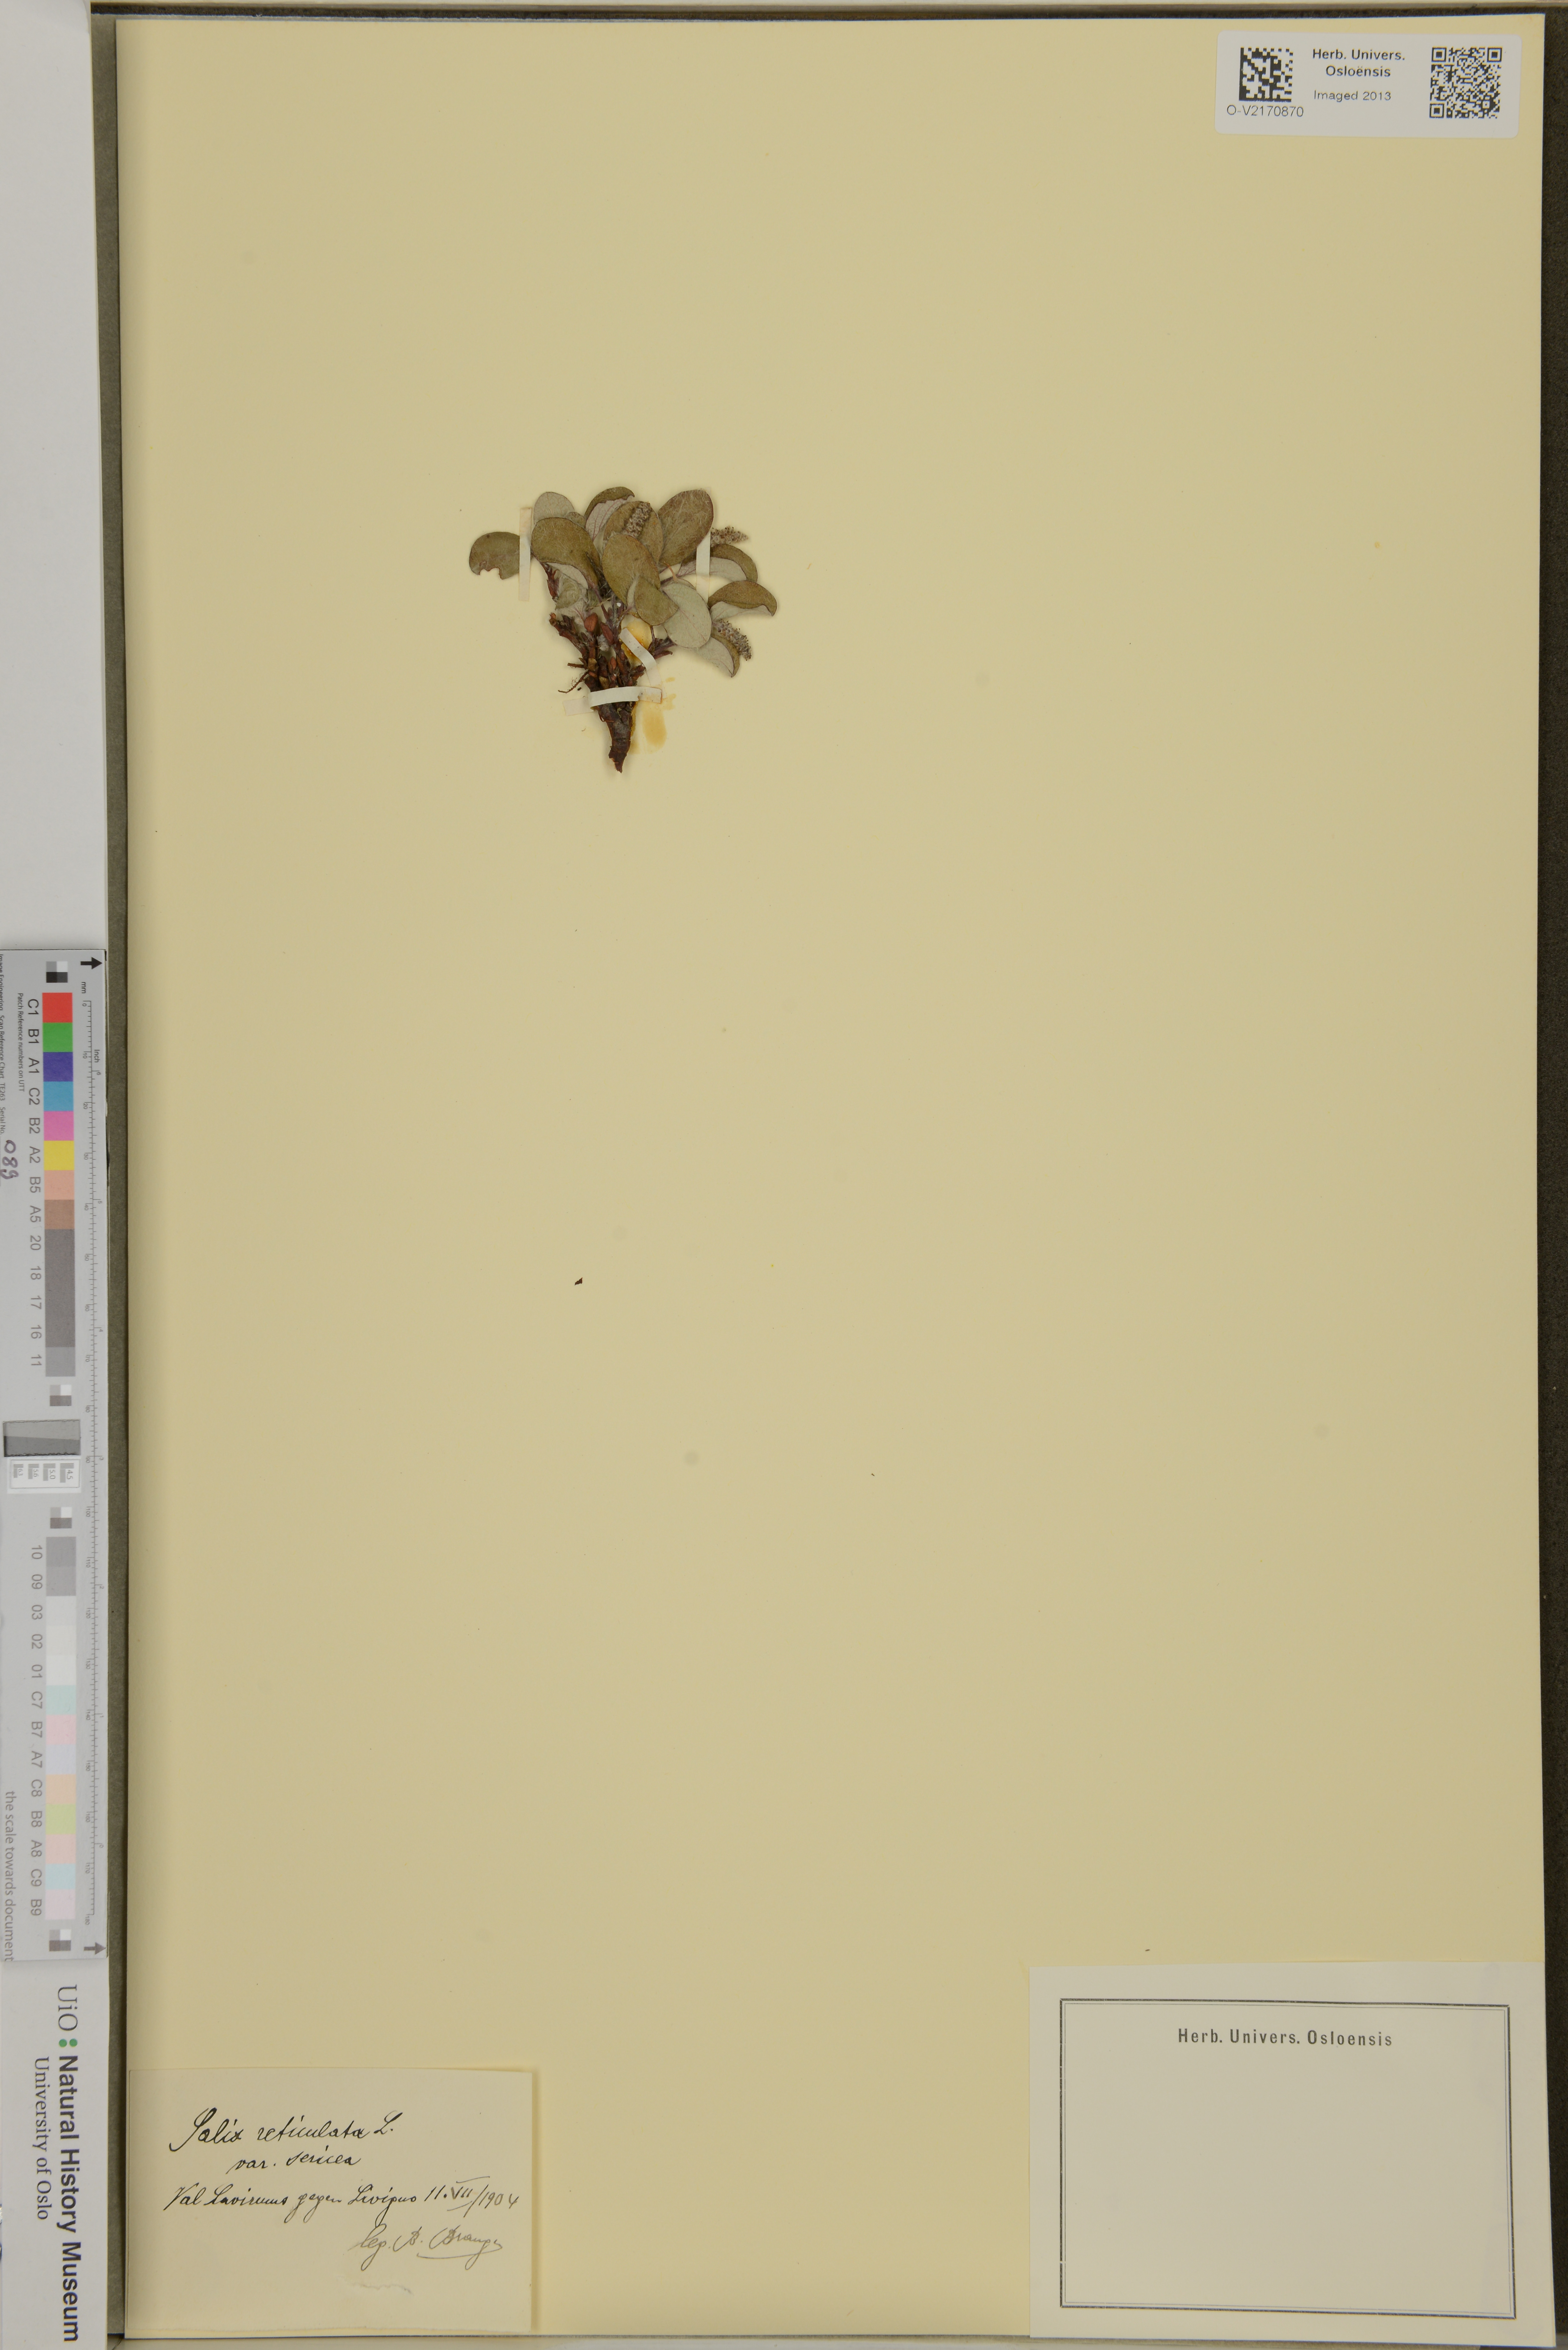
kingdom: Plantae
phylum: Tracheophyta
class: Magnoliopsida
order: Malpighiales
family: Salicaceae
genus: Salix
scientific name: Salix reticulata
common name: Net-leaved willow
